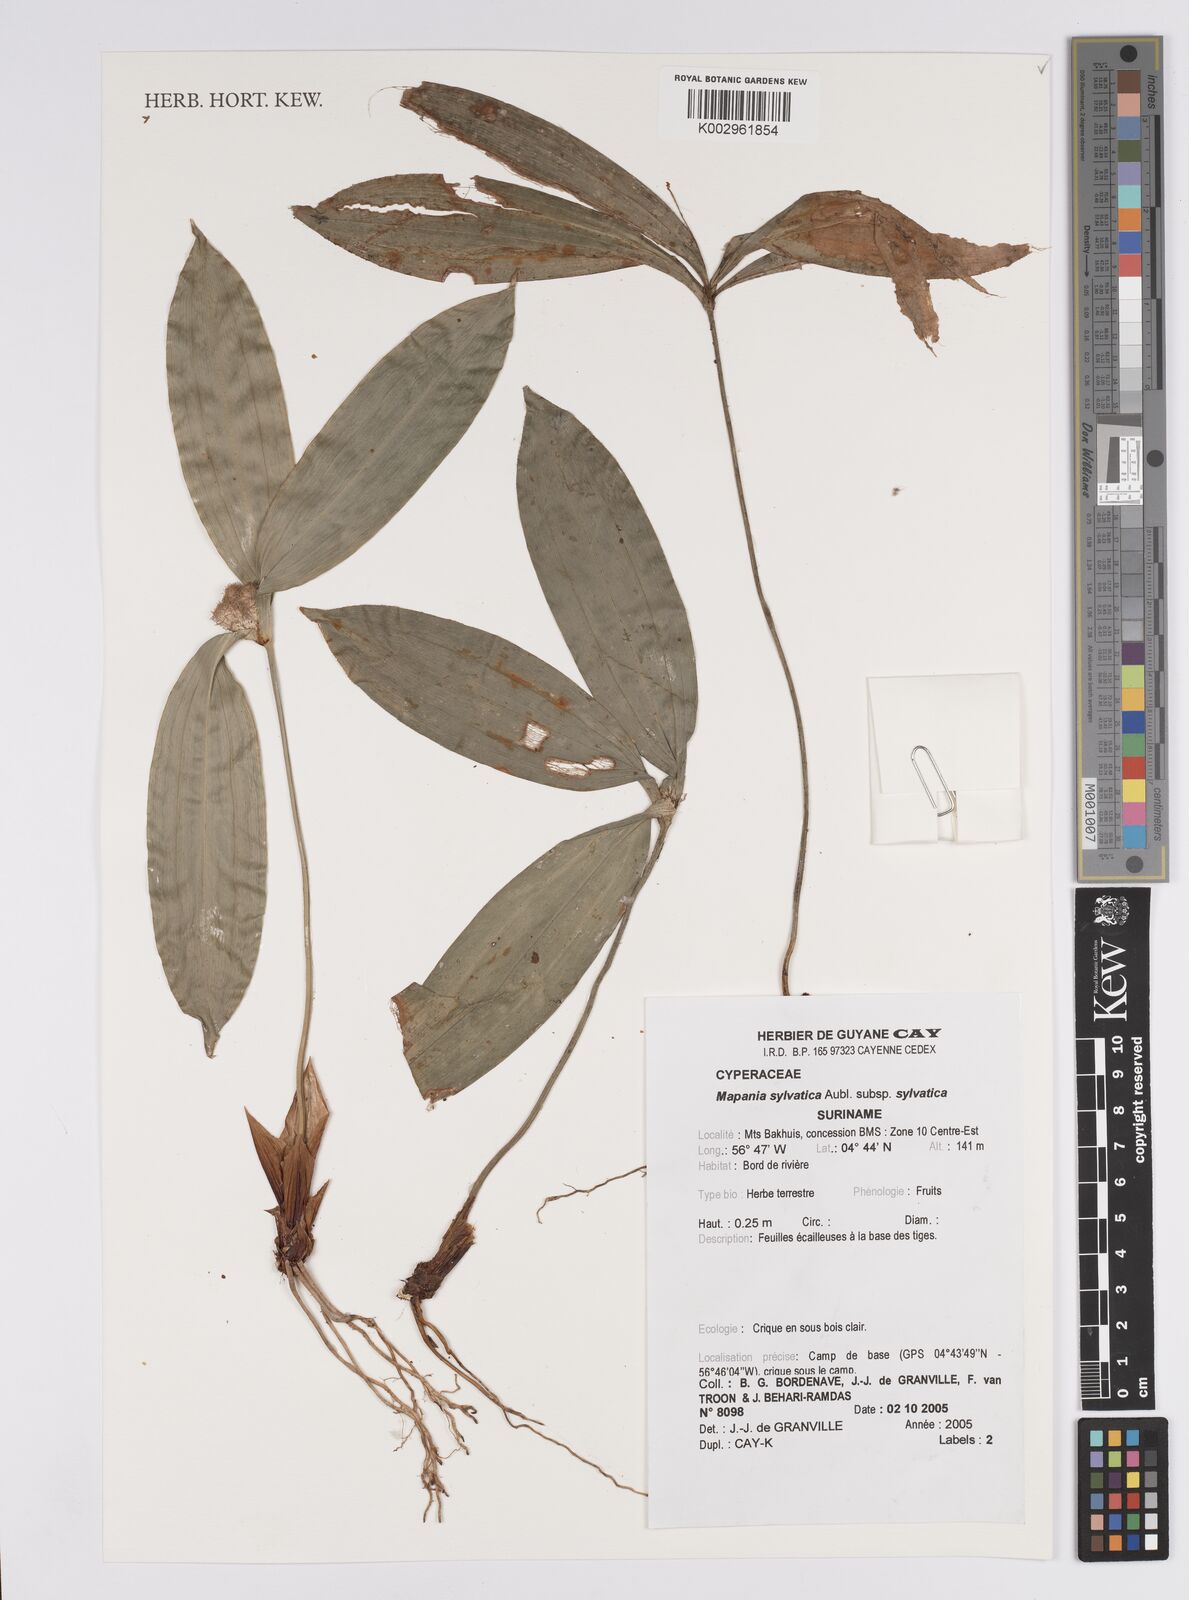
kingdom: Plantae
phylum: Tracheophyta
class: Liliopsida
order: Poales
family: Cyperaceae
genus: Mapania
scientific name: Mapania sylvatica
